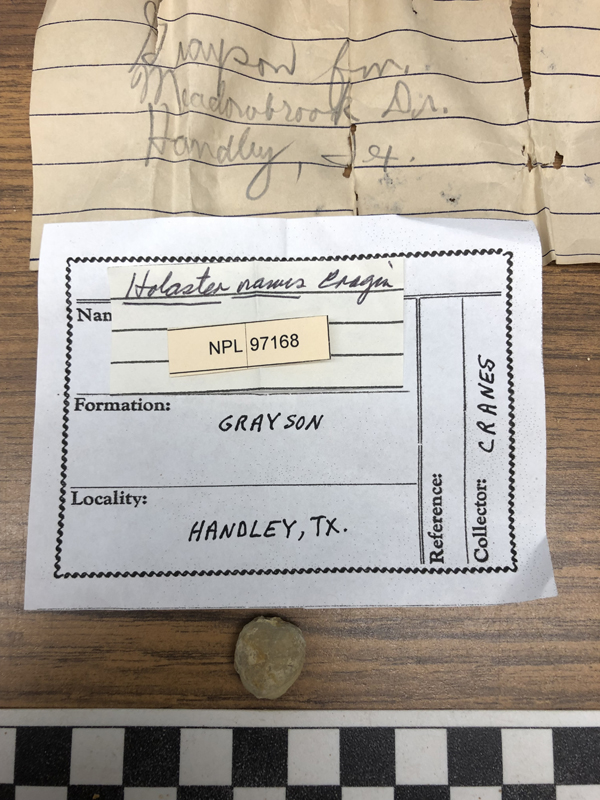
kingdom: Animalia
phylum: Echinodermata
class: Echinoidea
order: Holasteroida
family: Holasteridae
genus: Holaster
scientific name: Holaster
